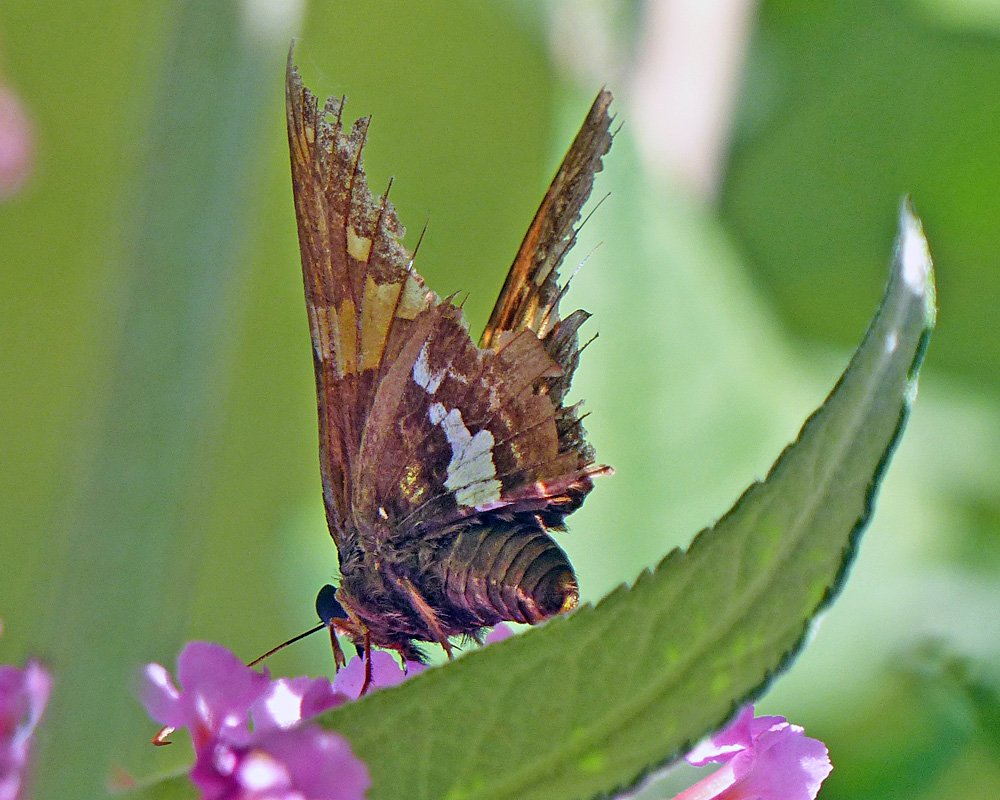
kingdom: Animalia
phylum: Arthropoda
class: Insecta
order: Lepidoptera
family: Hesperiidae
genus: Epargyreus
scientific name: Epargyreus clarus
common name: Silver-spotted Skipper
